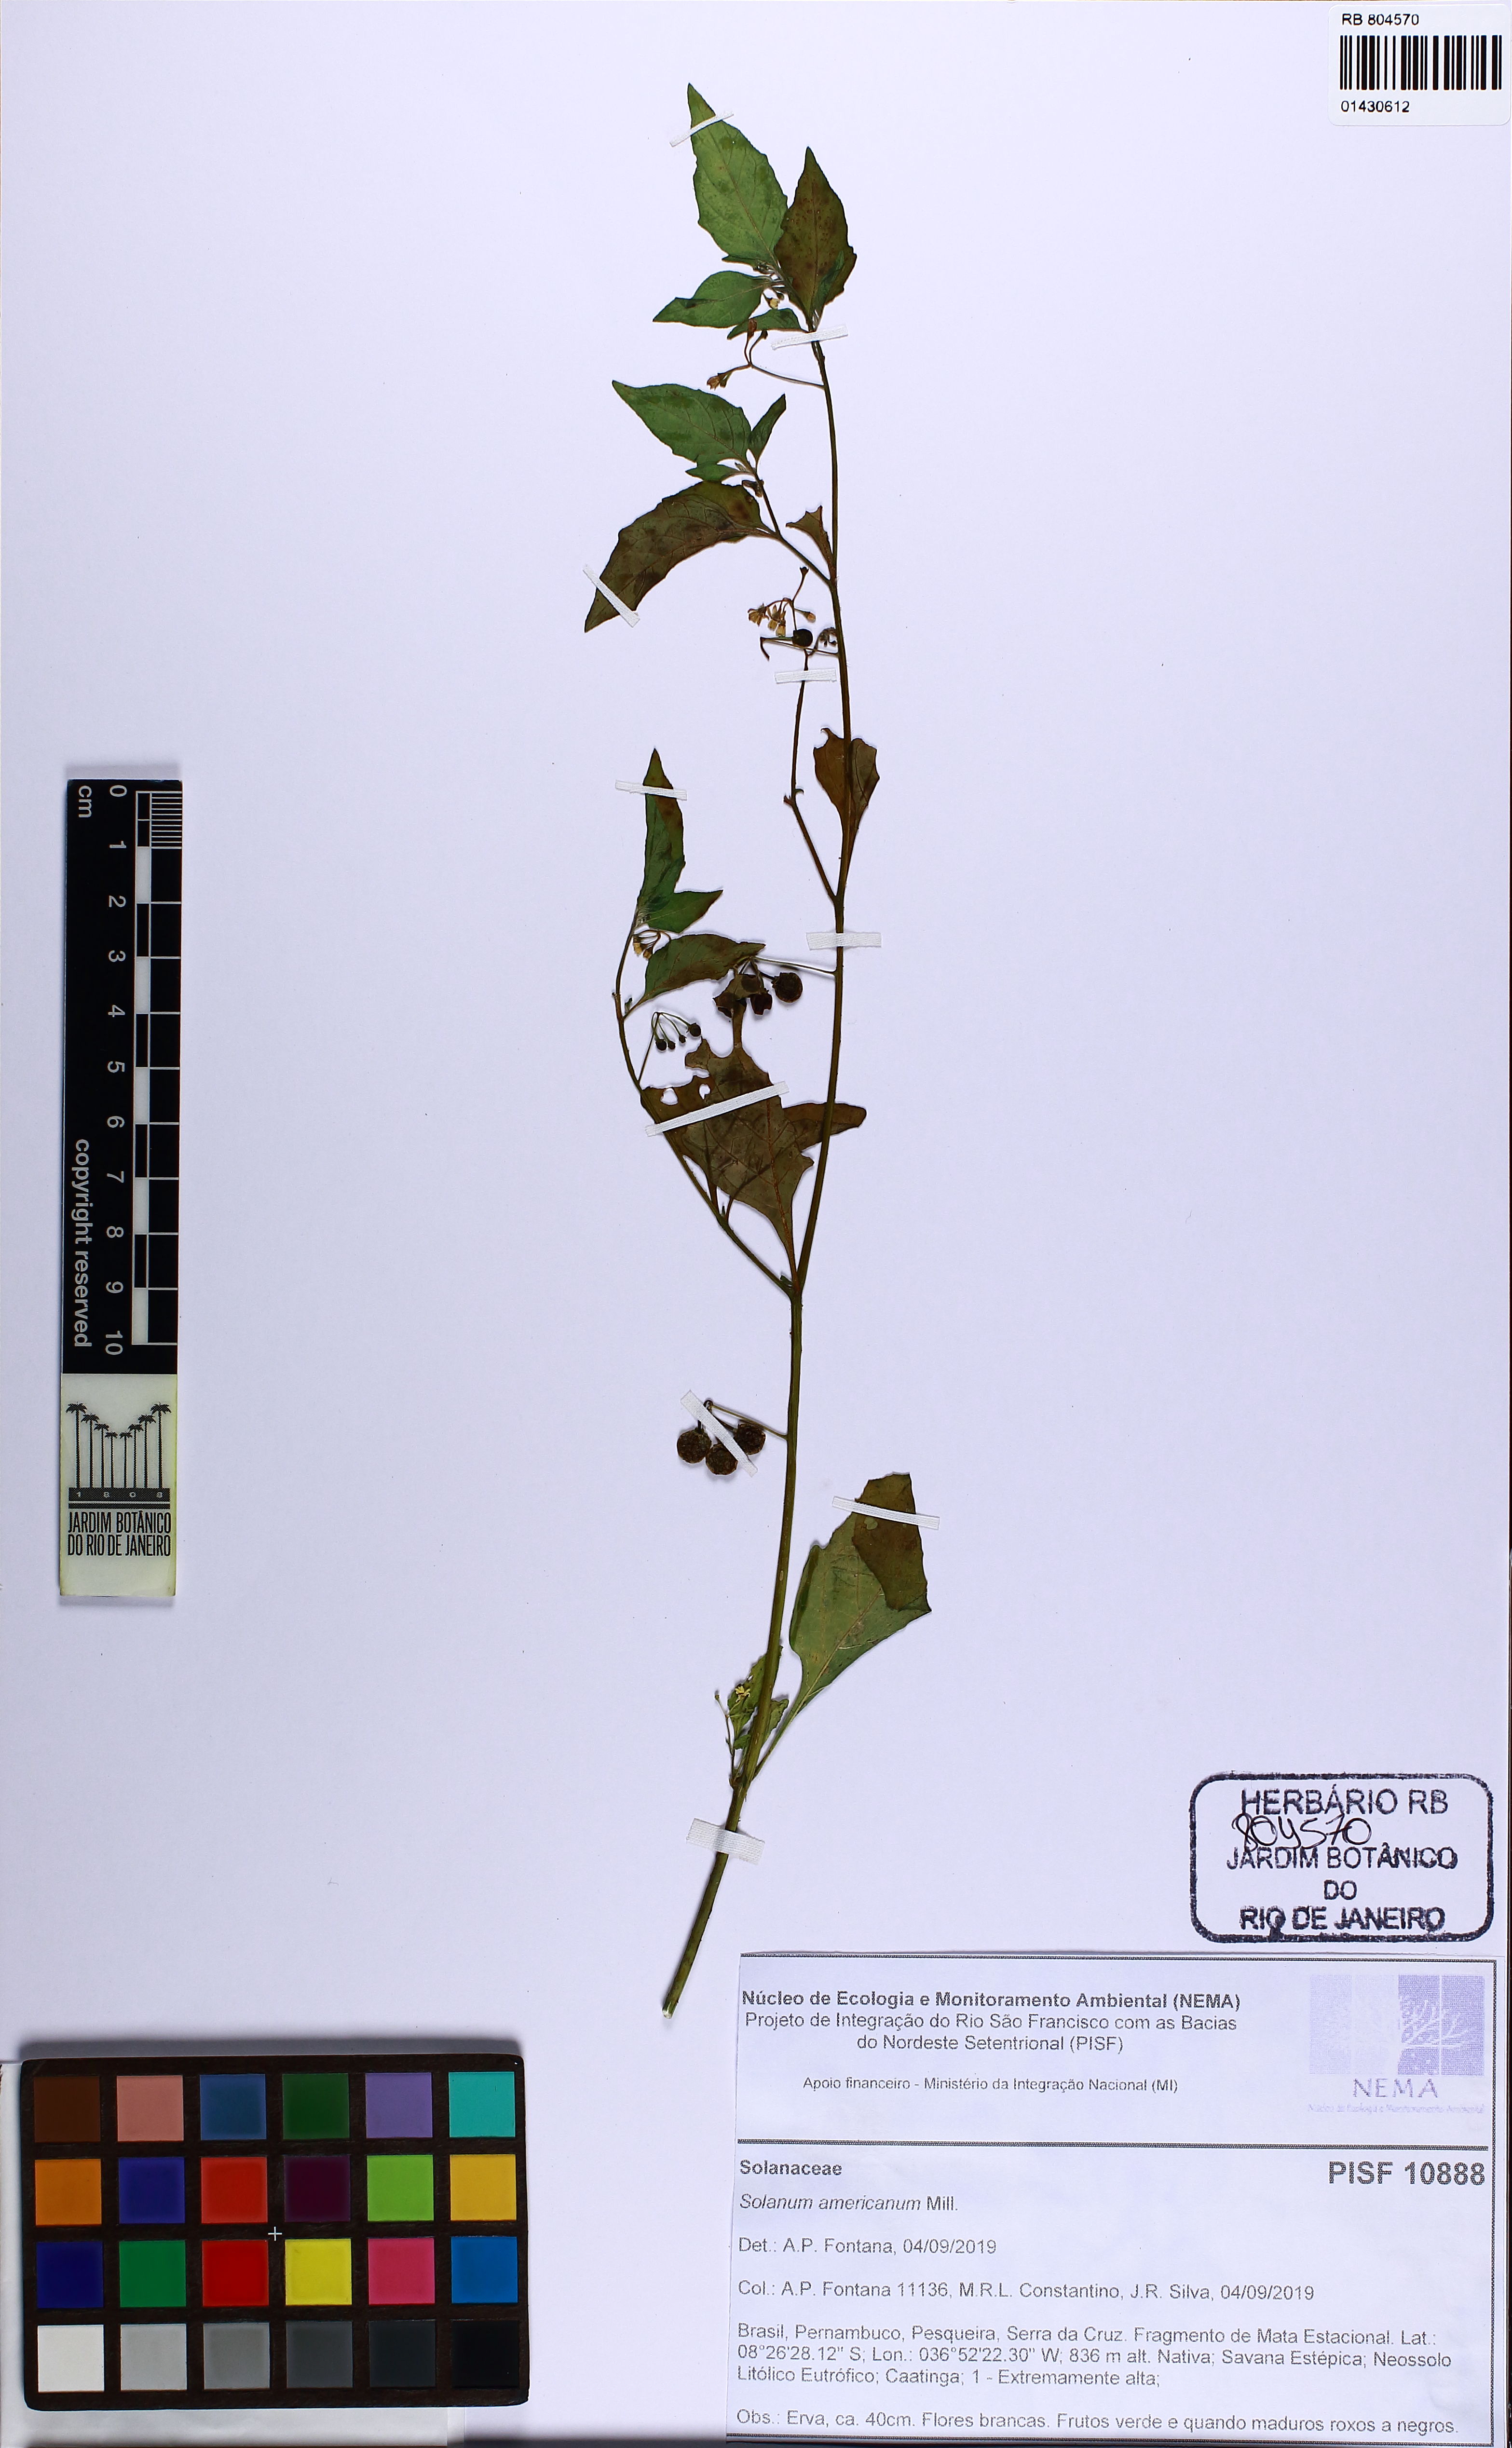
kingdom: Plantae
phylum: Tracheophyta
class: Magnoliopsida
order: Solanales
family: Solanaceae
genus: Solanum
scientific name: Solanum americanum
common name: American black nightshade
